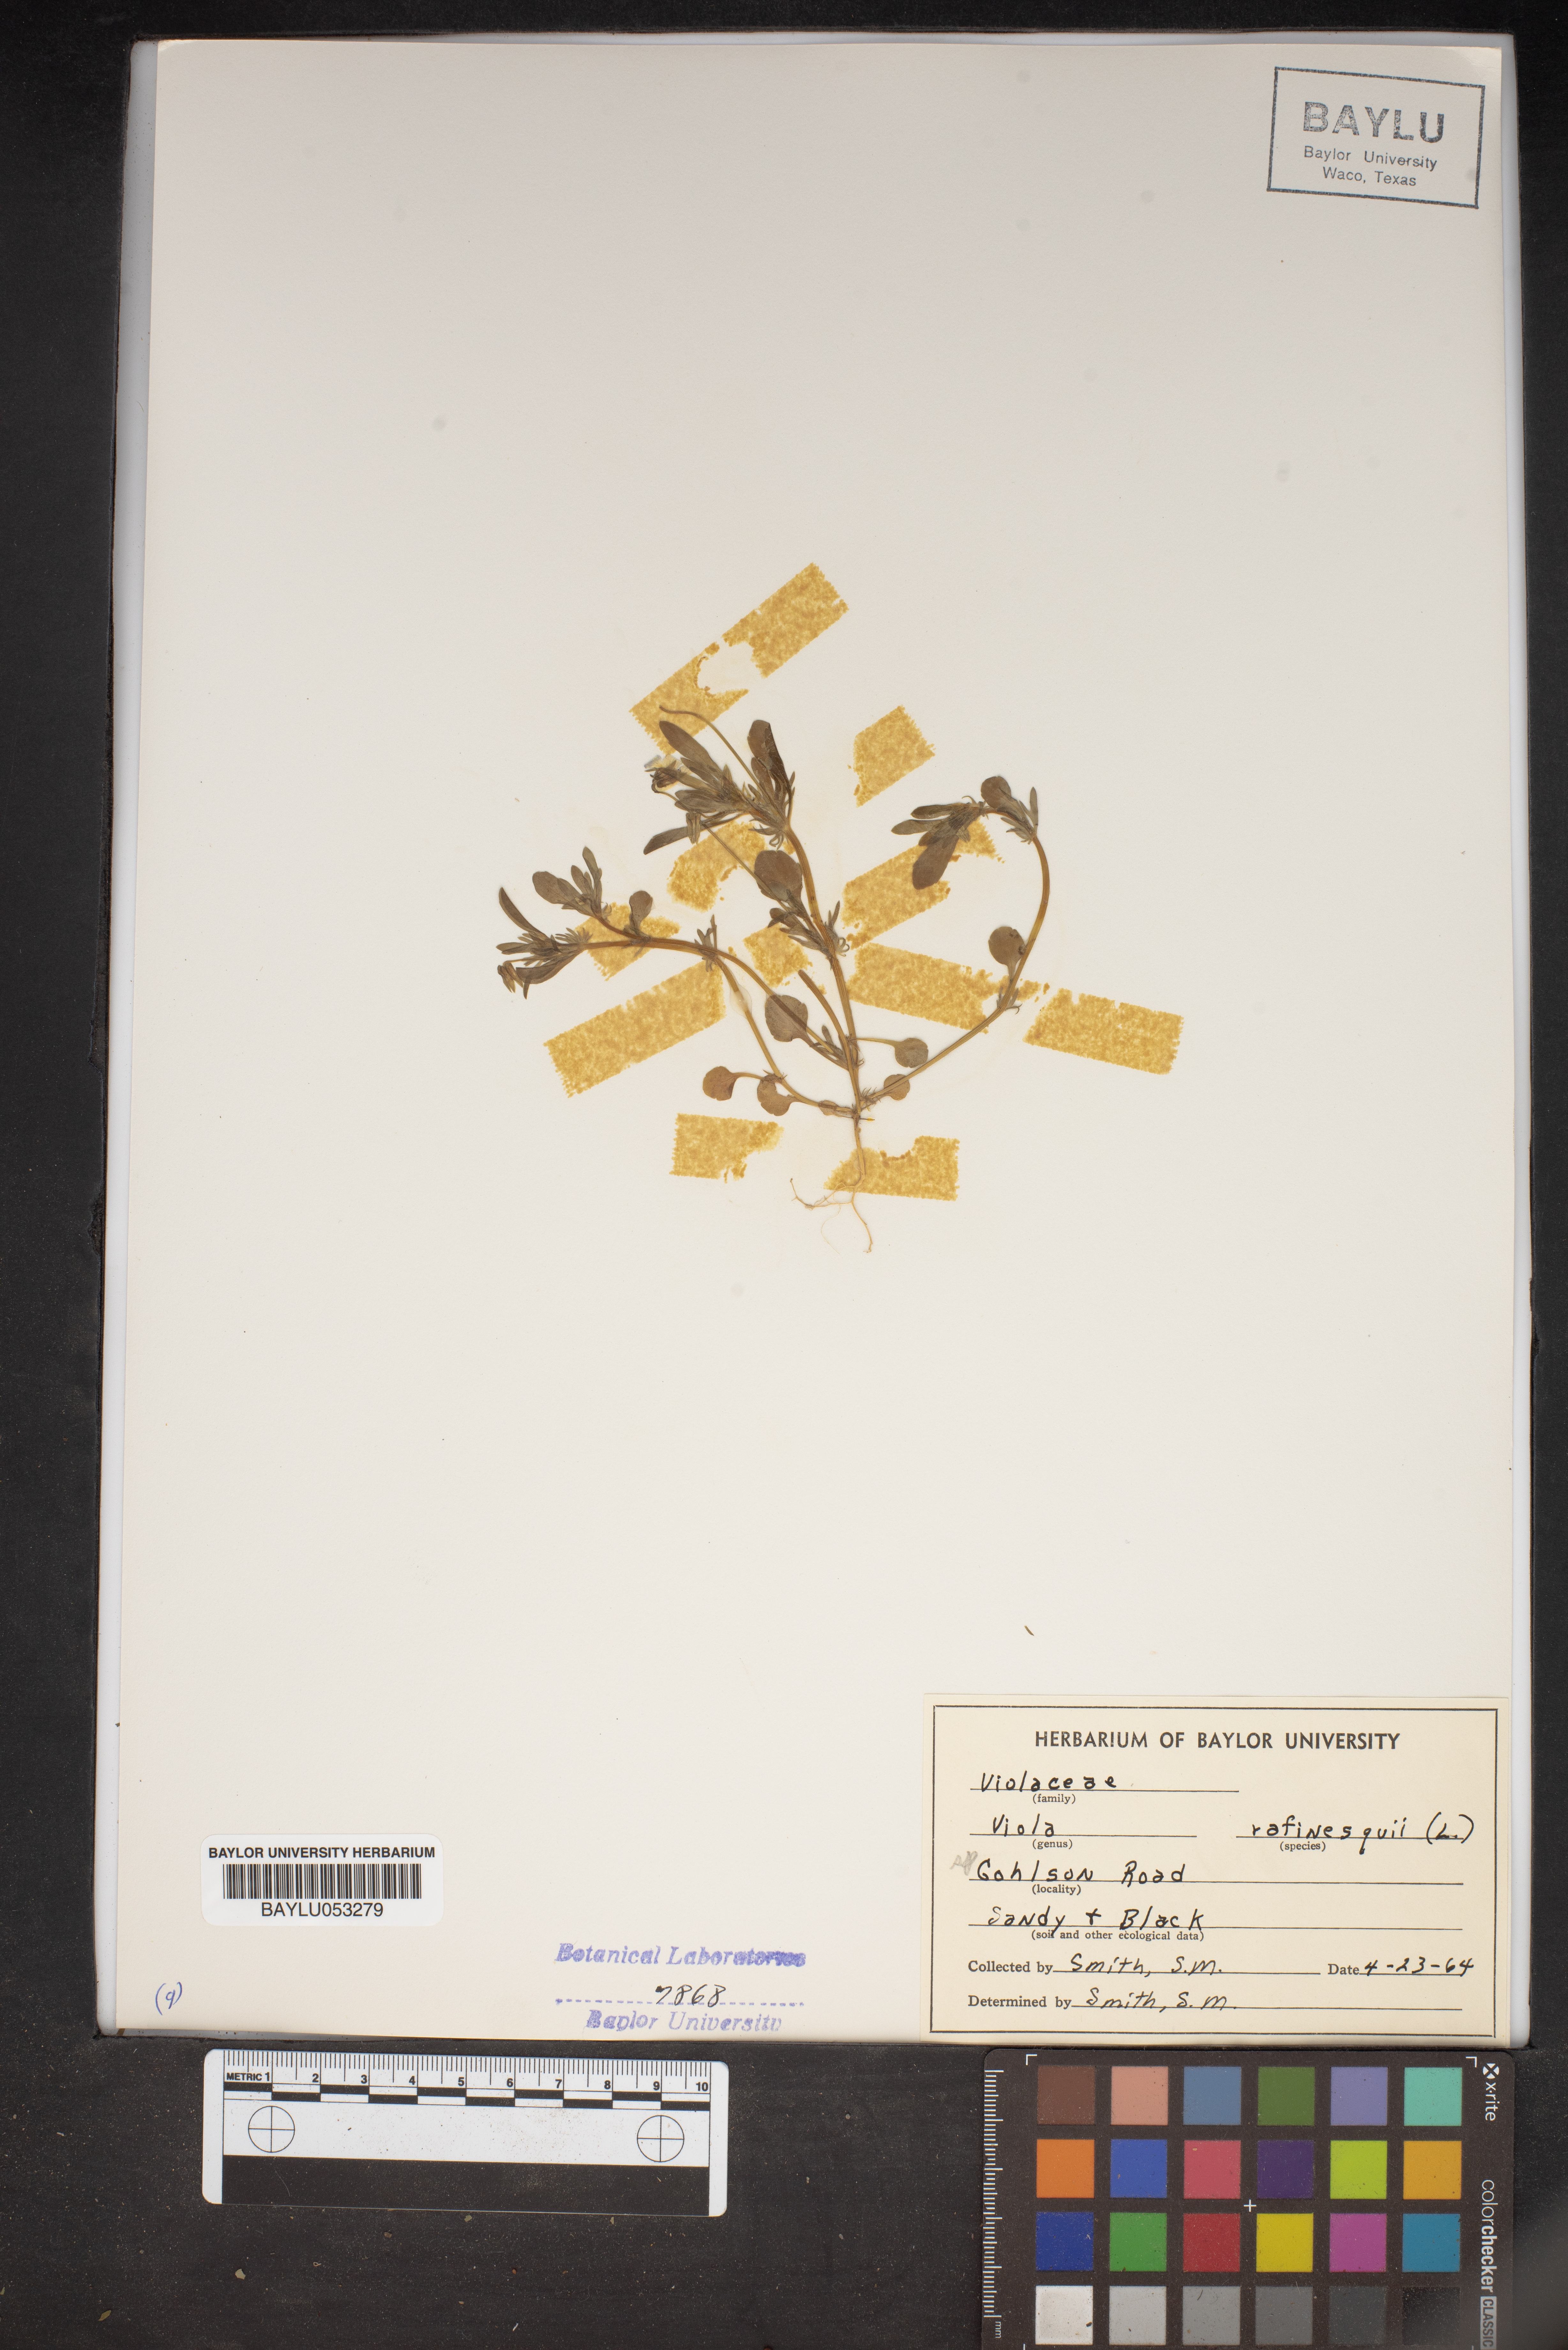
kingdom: Plantae
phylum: Tracheophyta
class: Magnoliopsida
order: Malpighiales
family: Violaceae
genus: Viola
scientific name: Viola rafinesquei
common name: American field pansy
